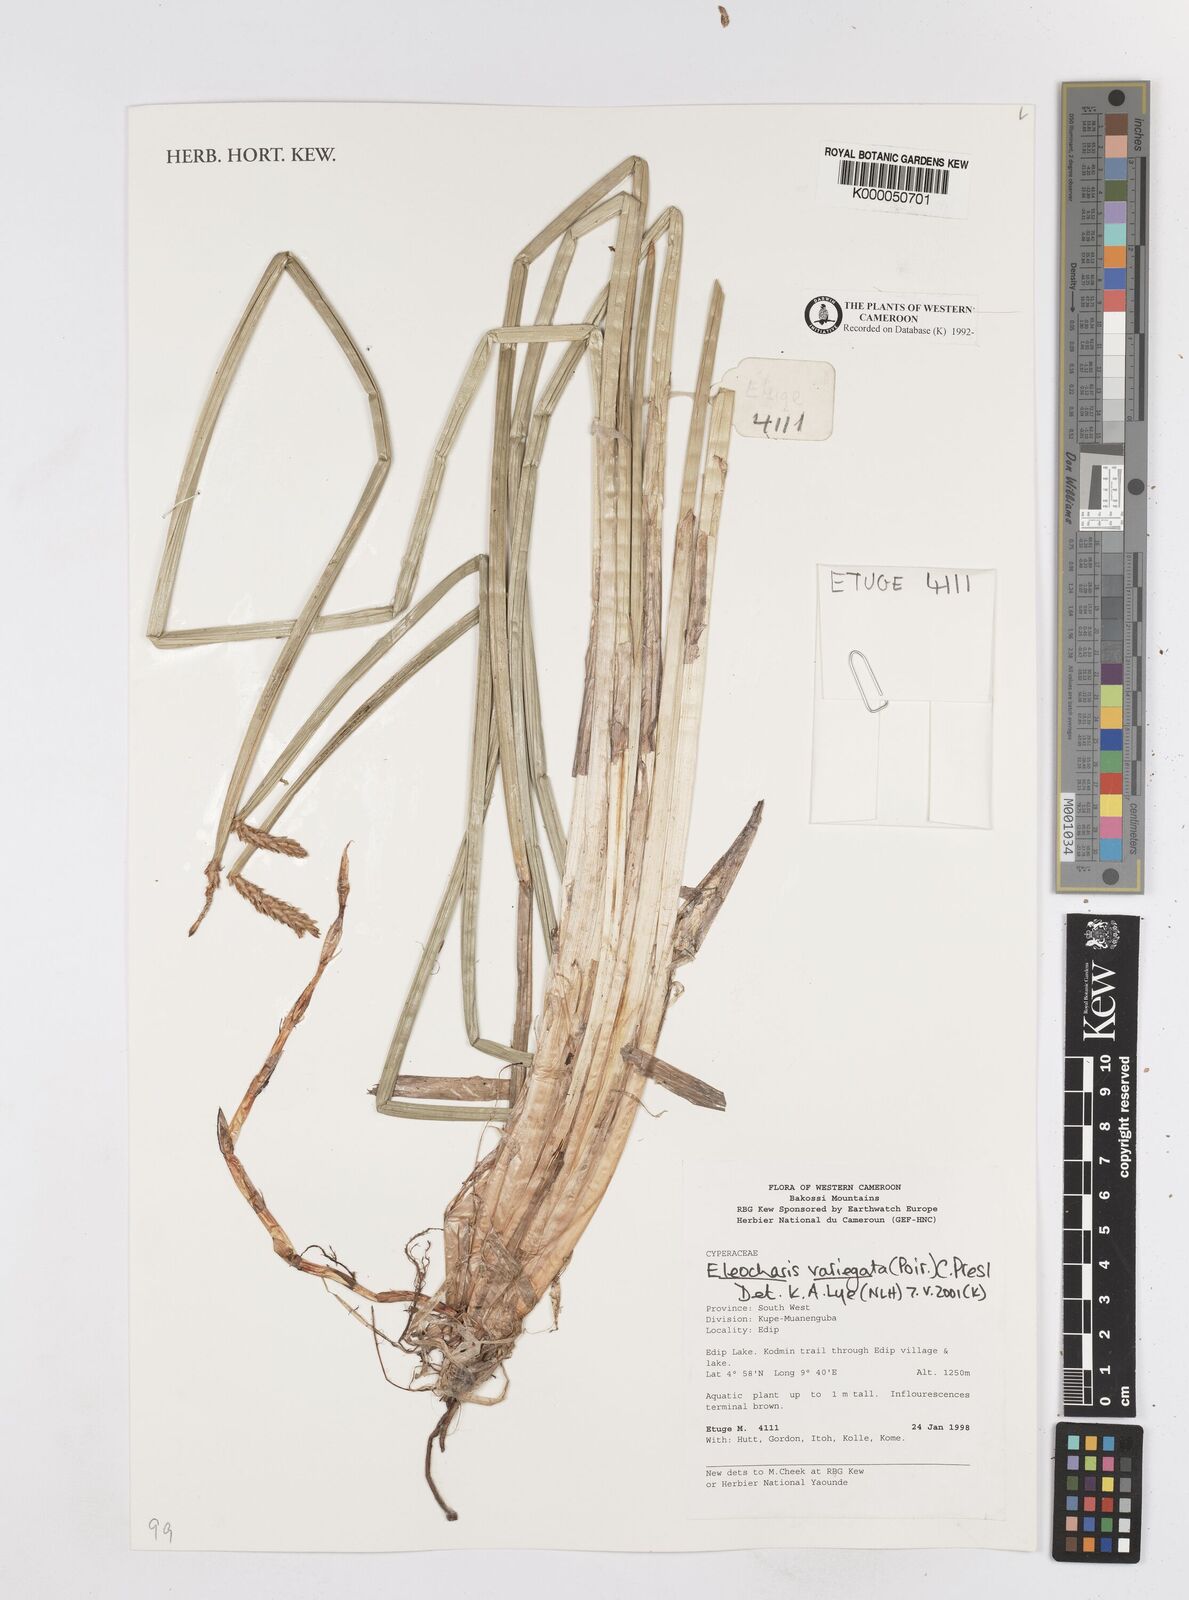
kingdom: Plantae
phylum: Tracheophyta
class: Liliopsida
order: Poales
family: Cyperaceae
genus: Eleocharis
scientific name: Eleocharis variegata
